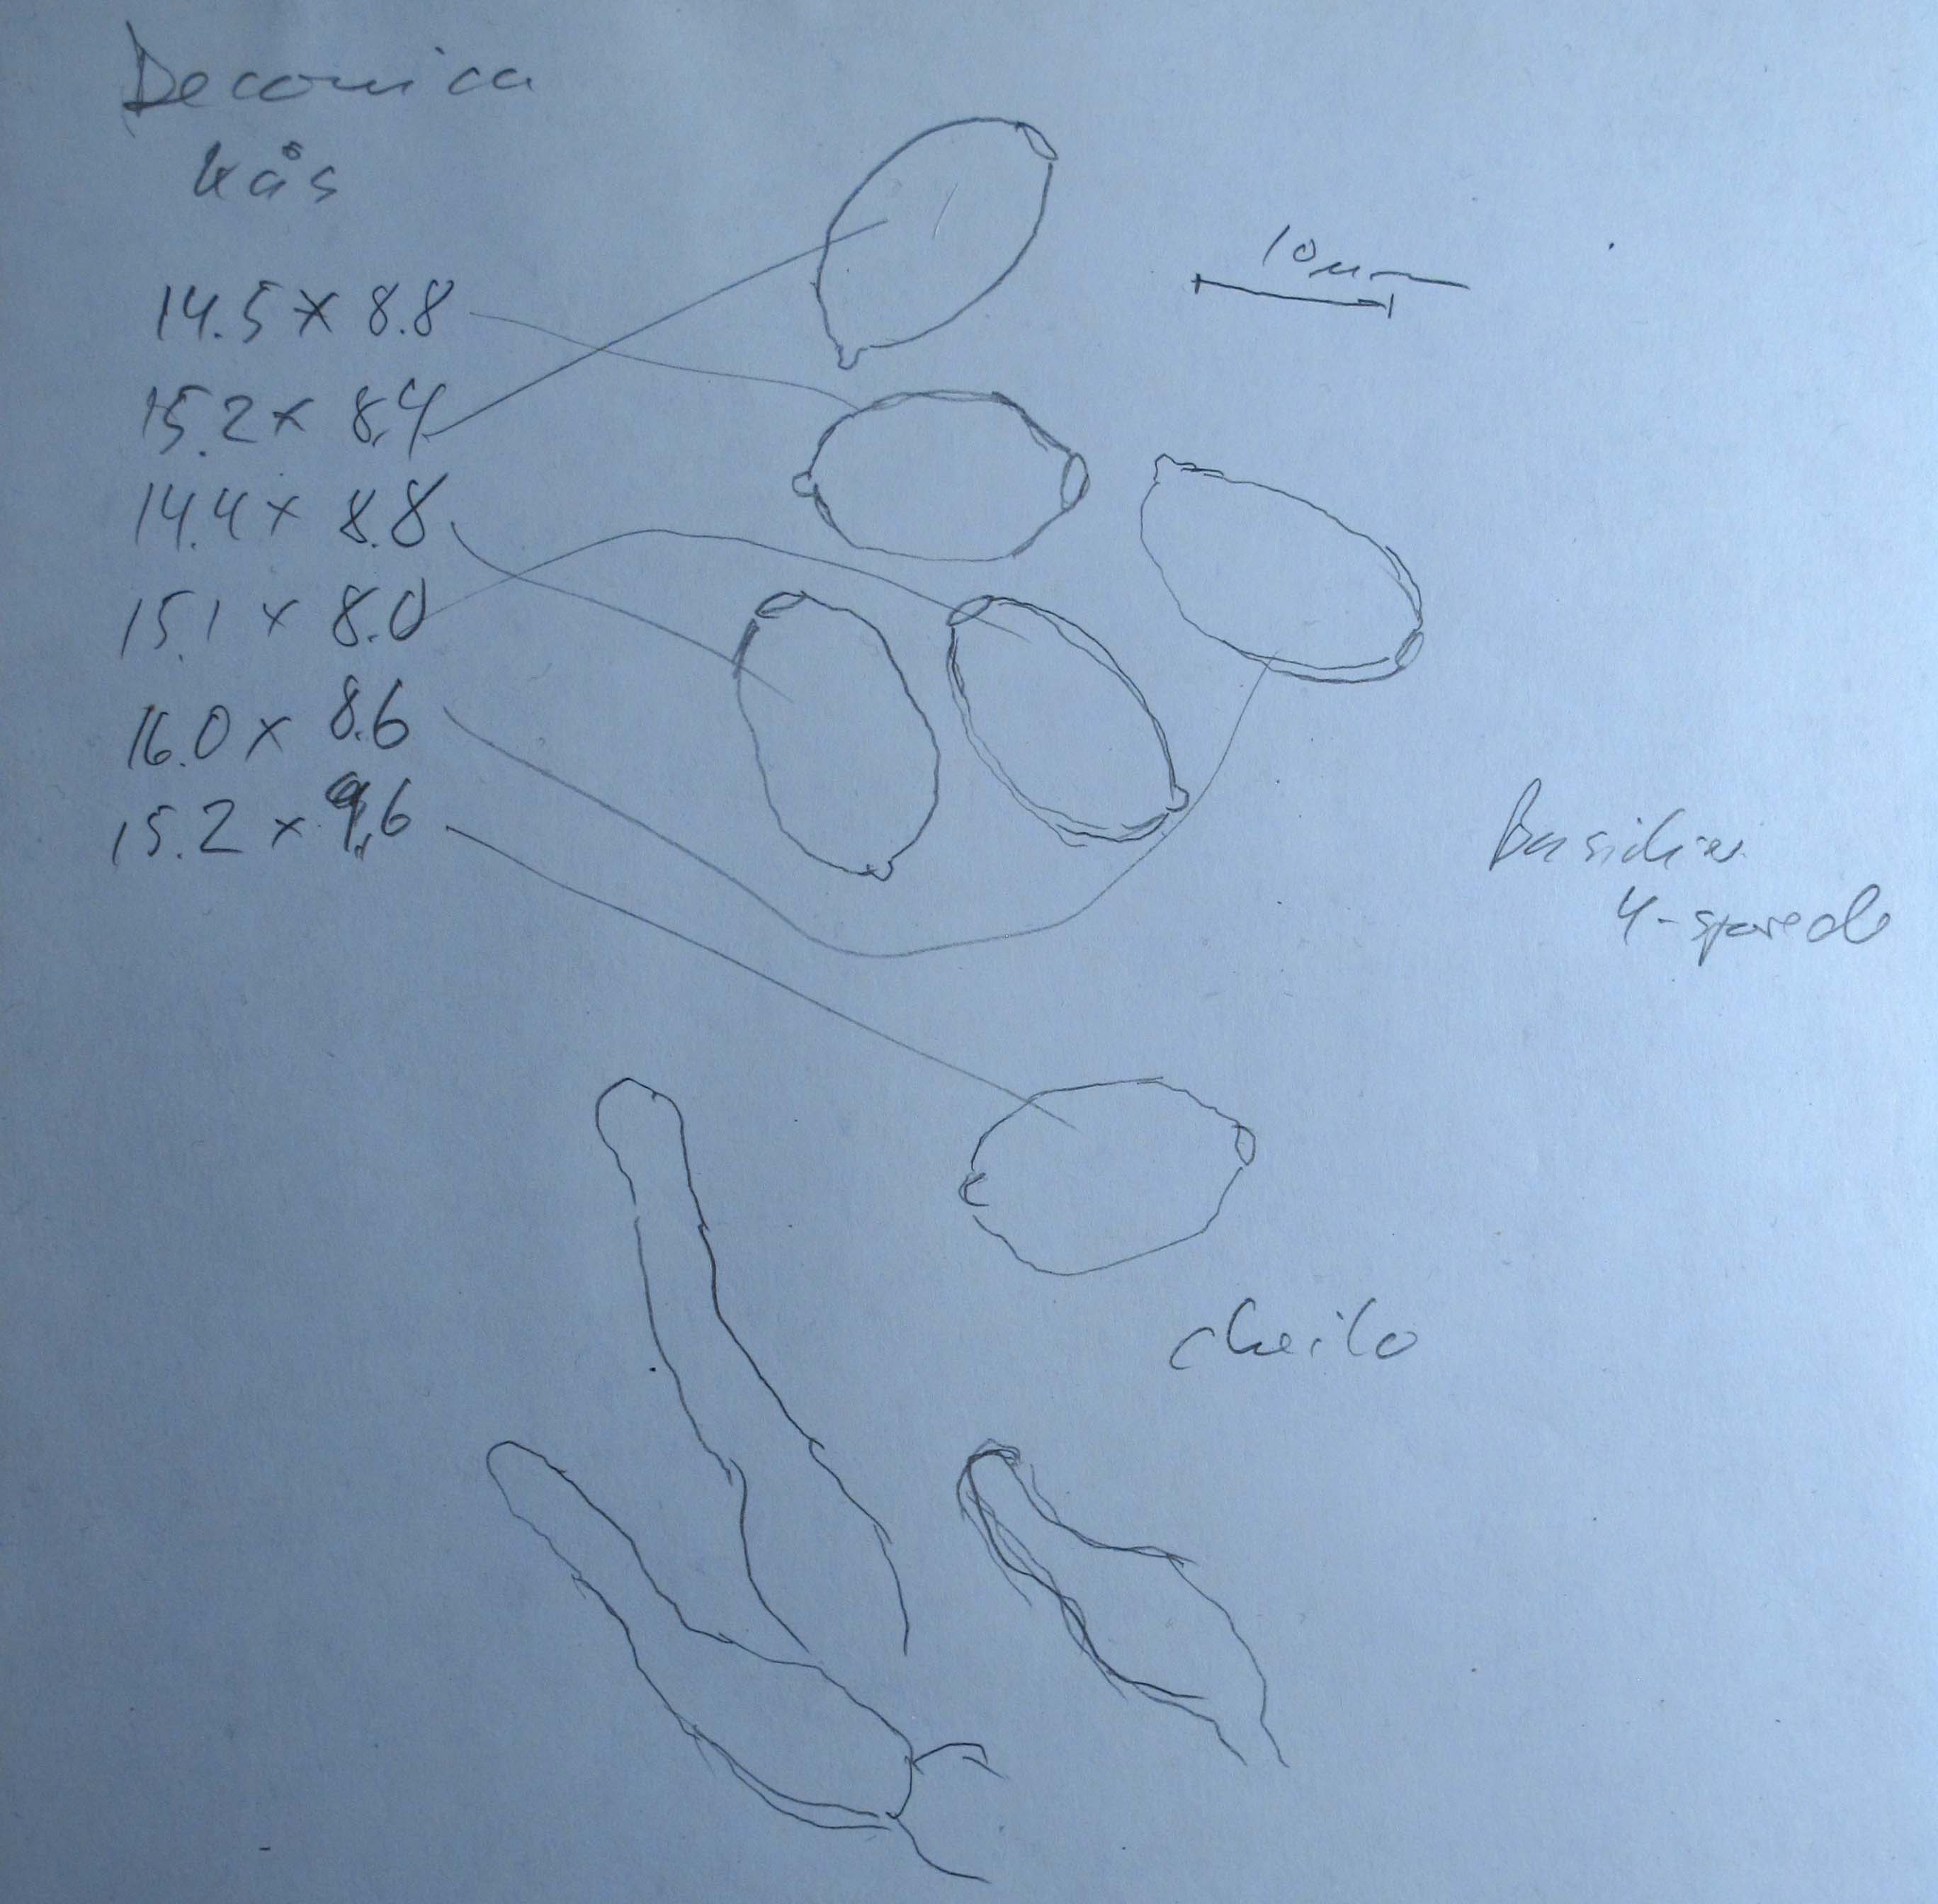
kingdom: Fungi
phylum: Basidiomycota
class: Agaricomycetes
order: Agaricales
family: Strophariaceae
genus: Deconica
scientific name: Deconica moelleri
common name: Møllers stråhat
